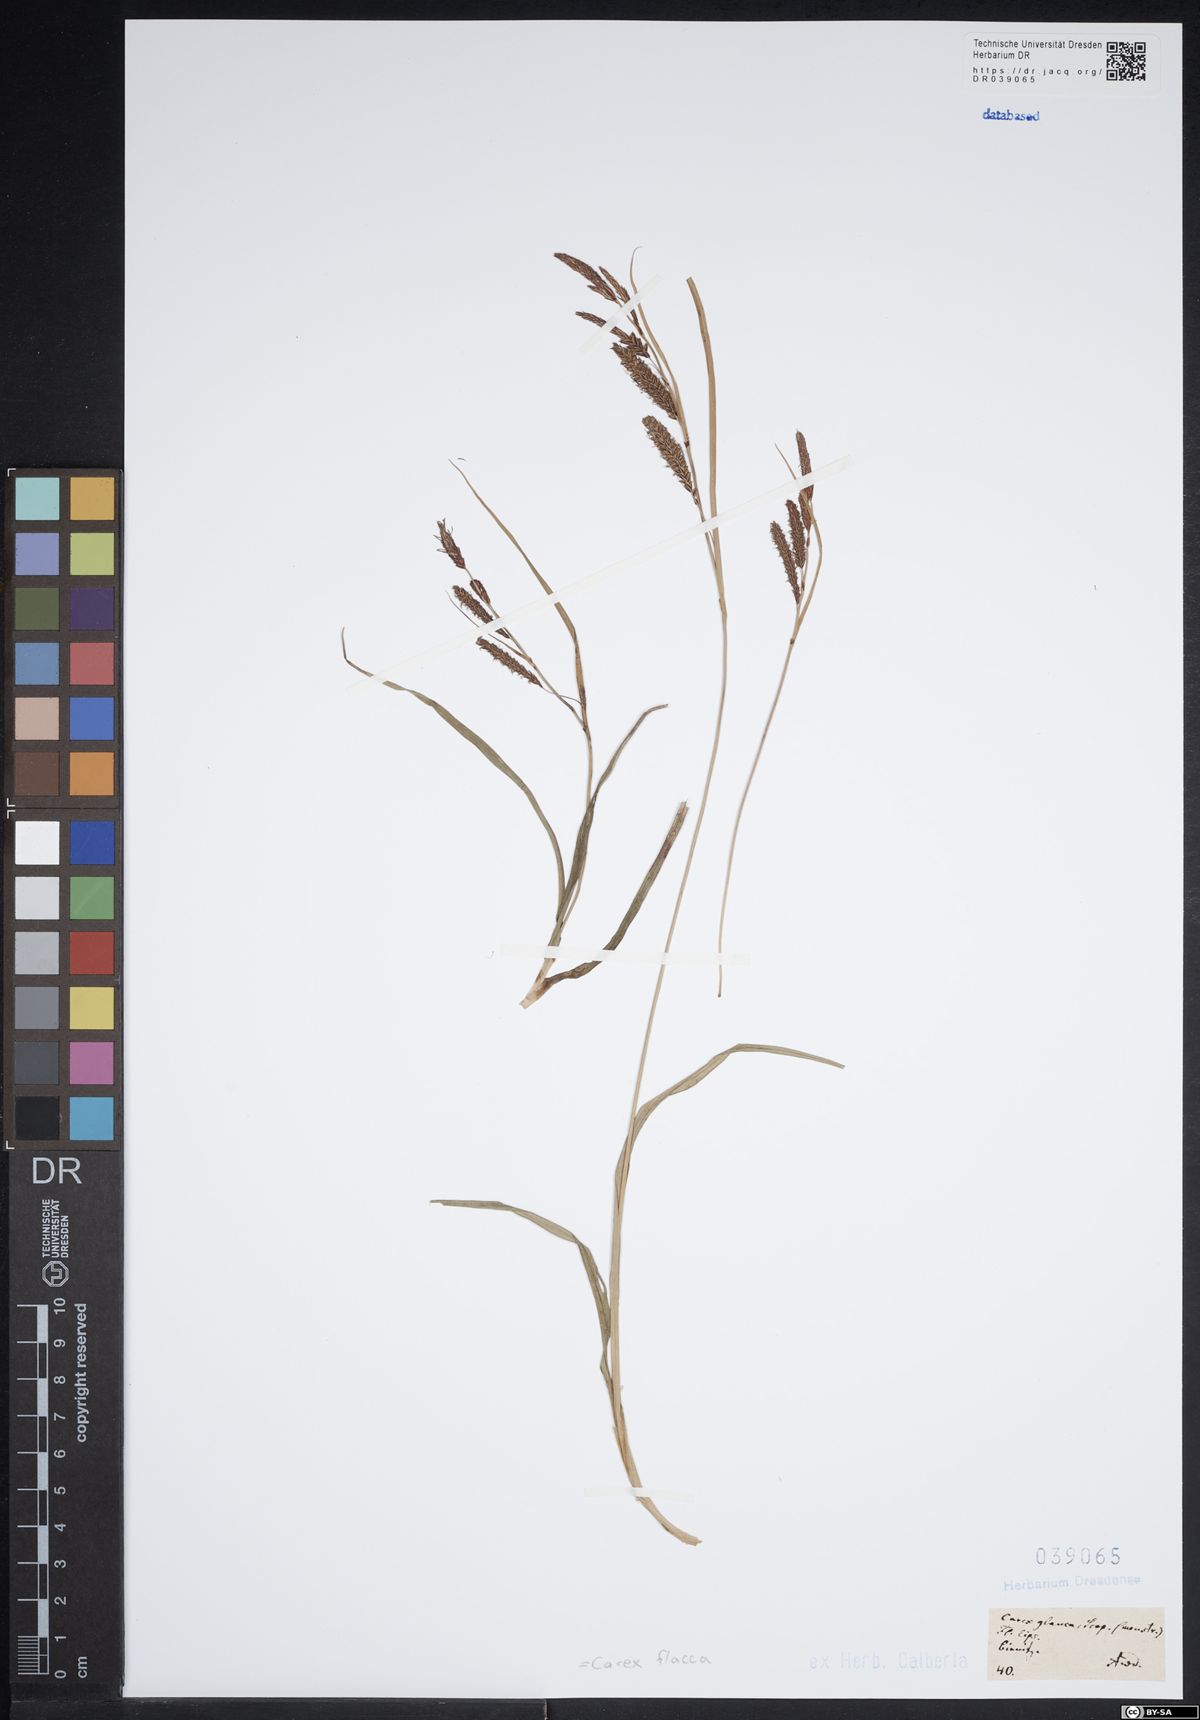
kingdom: Plantae
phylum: Tracheophyta
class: Liliopsida
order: Poales
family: Cyperaceae
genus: Carex
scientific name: Carex flacca
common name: Glaucous sedge
